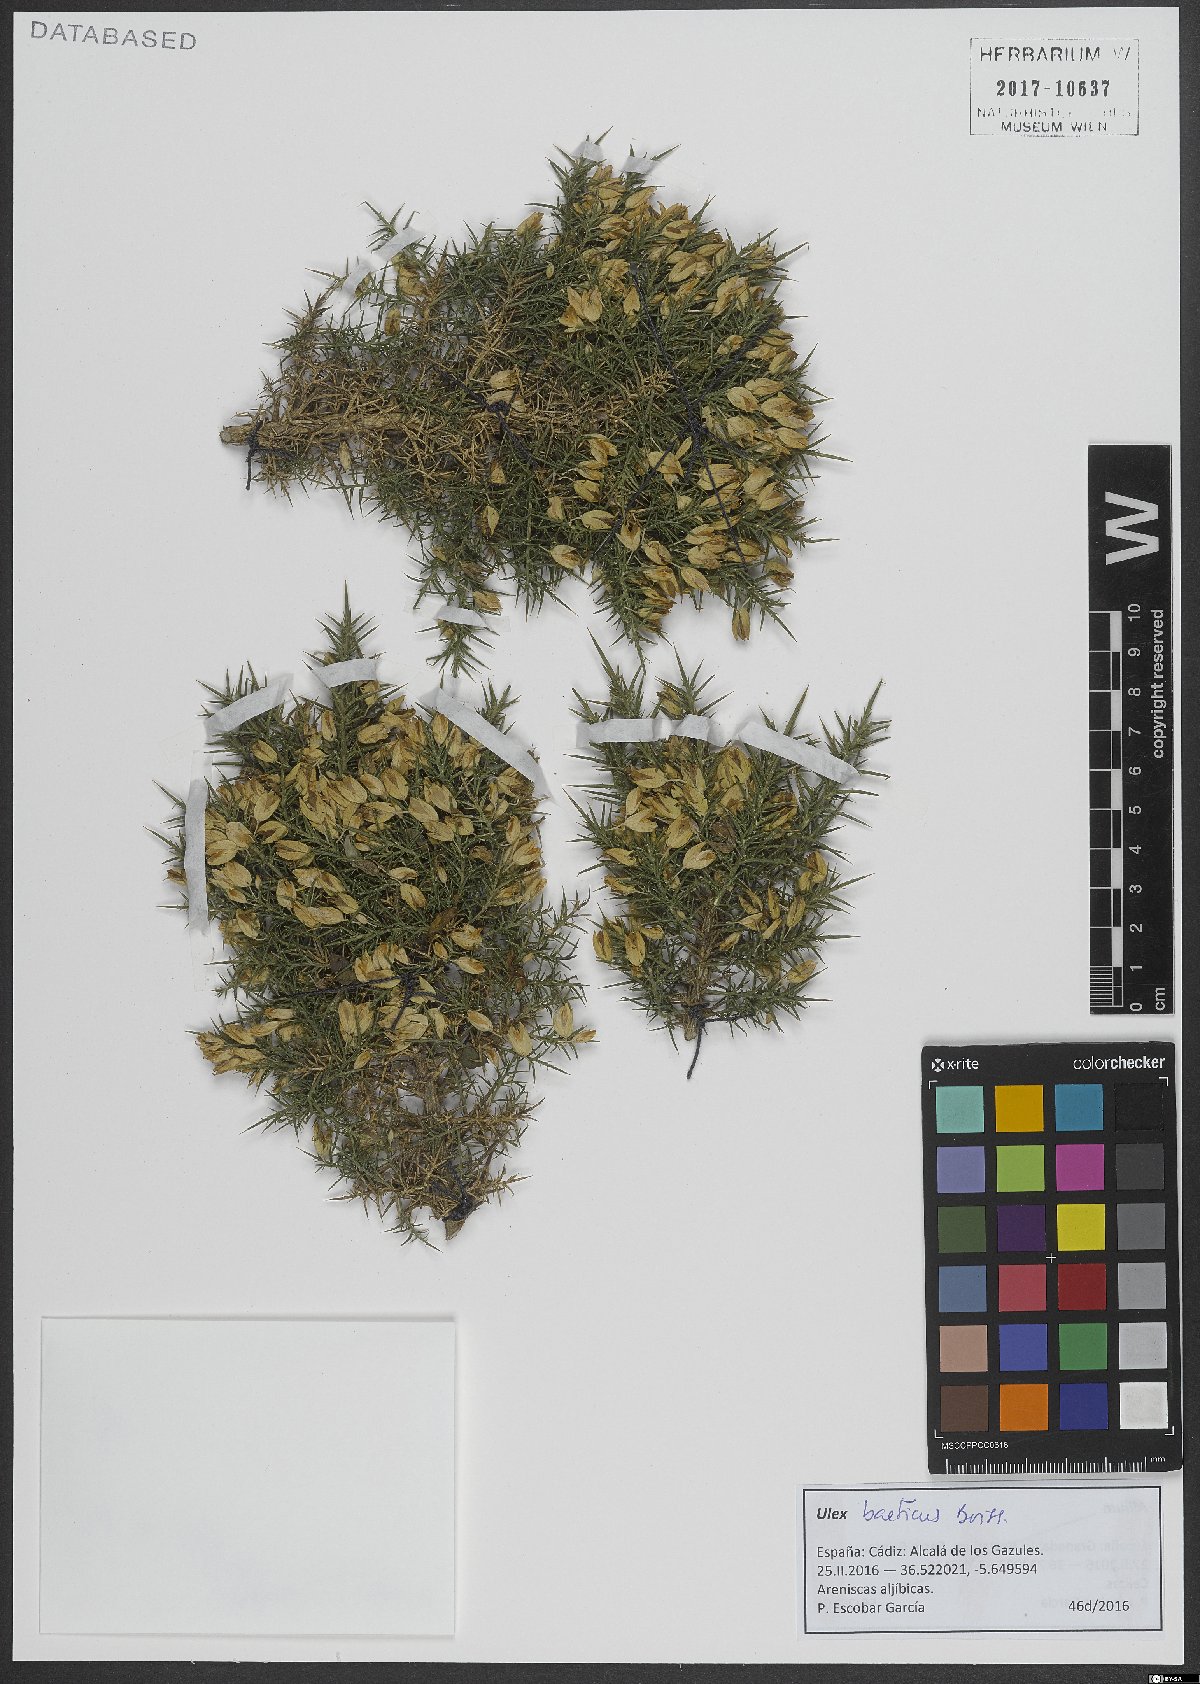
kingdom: Plantae
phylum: Tracheophyta
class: Magnoliopsida
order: Fabales
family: Fabaceae
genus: Ulex
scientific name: Ulex baeticus
